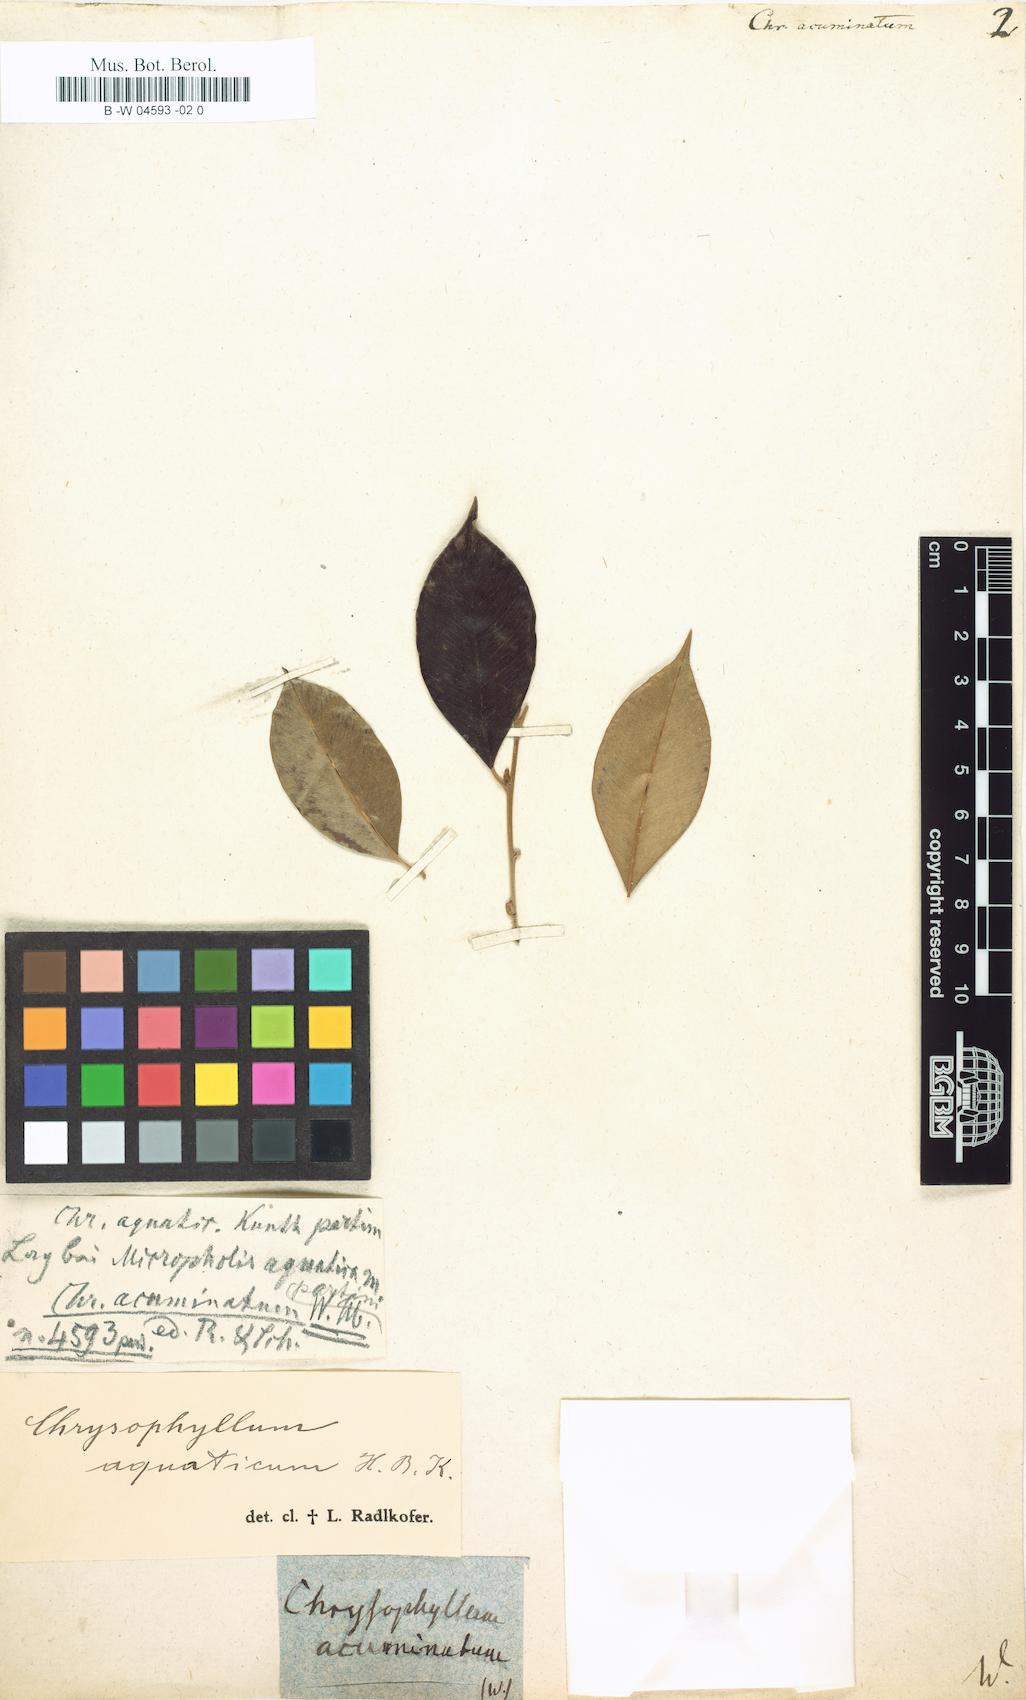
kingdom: Plantae
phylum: Tracheophyta
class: Magnoliopsida
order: Ericales
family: Sapotaceae
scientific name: Sapotaceae
